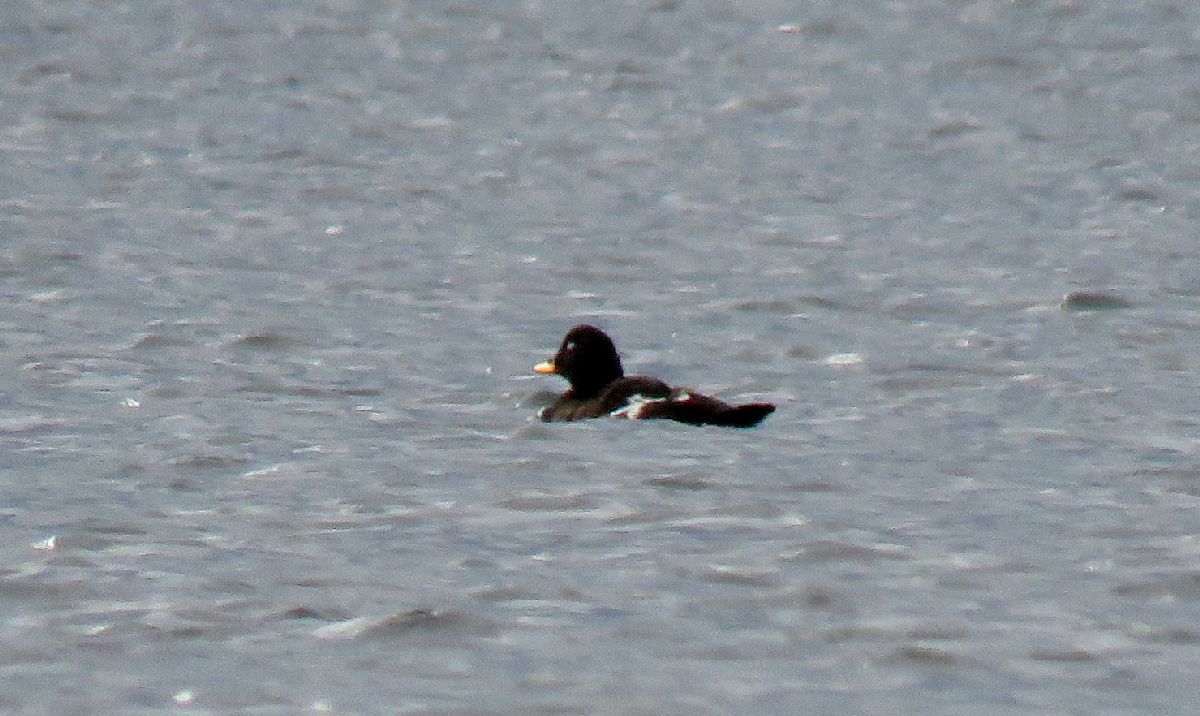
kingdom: Animalia
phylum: Chordata
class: Aves
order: Anseriformes
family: Anatidae
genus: Melanitta
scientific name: Melanitta fusca
